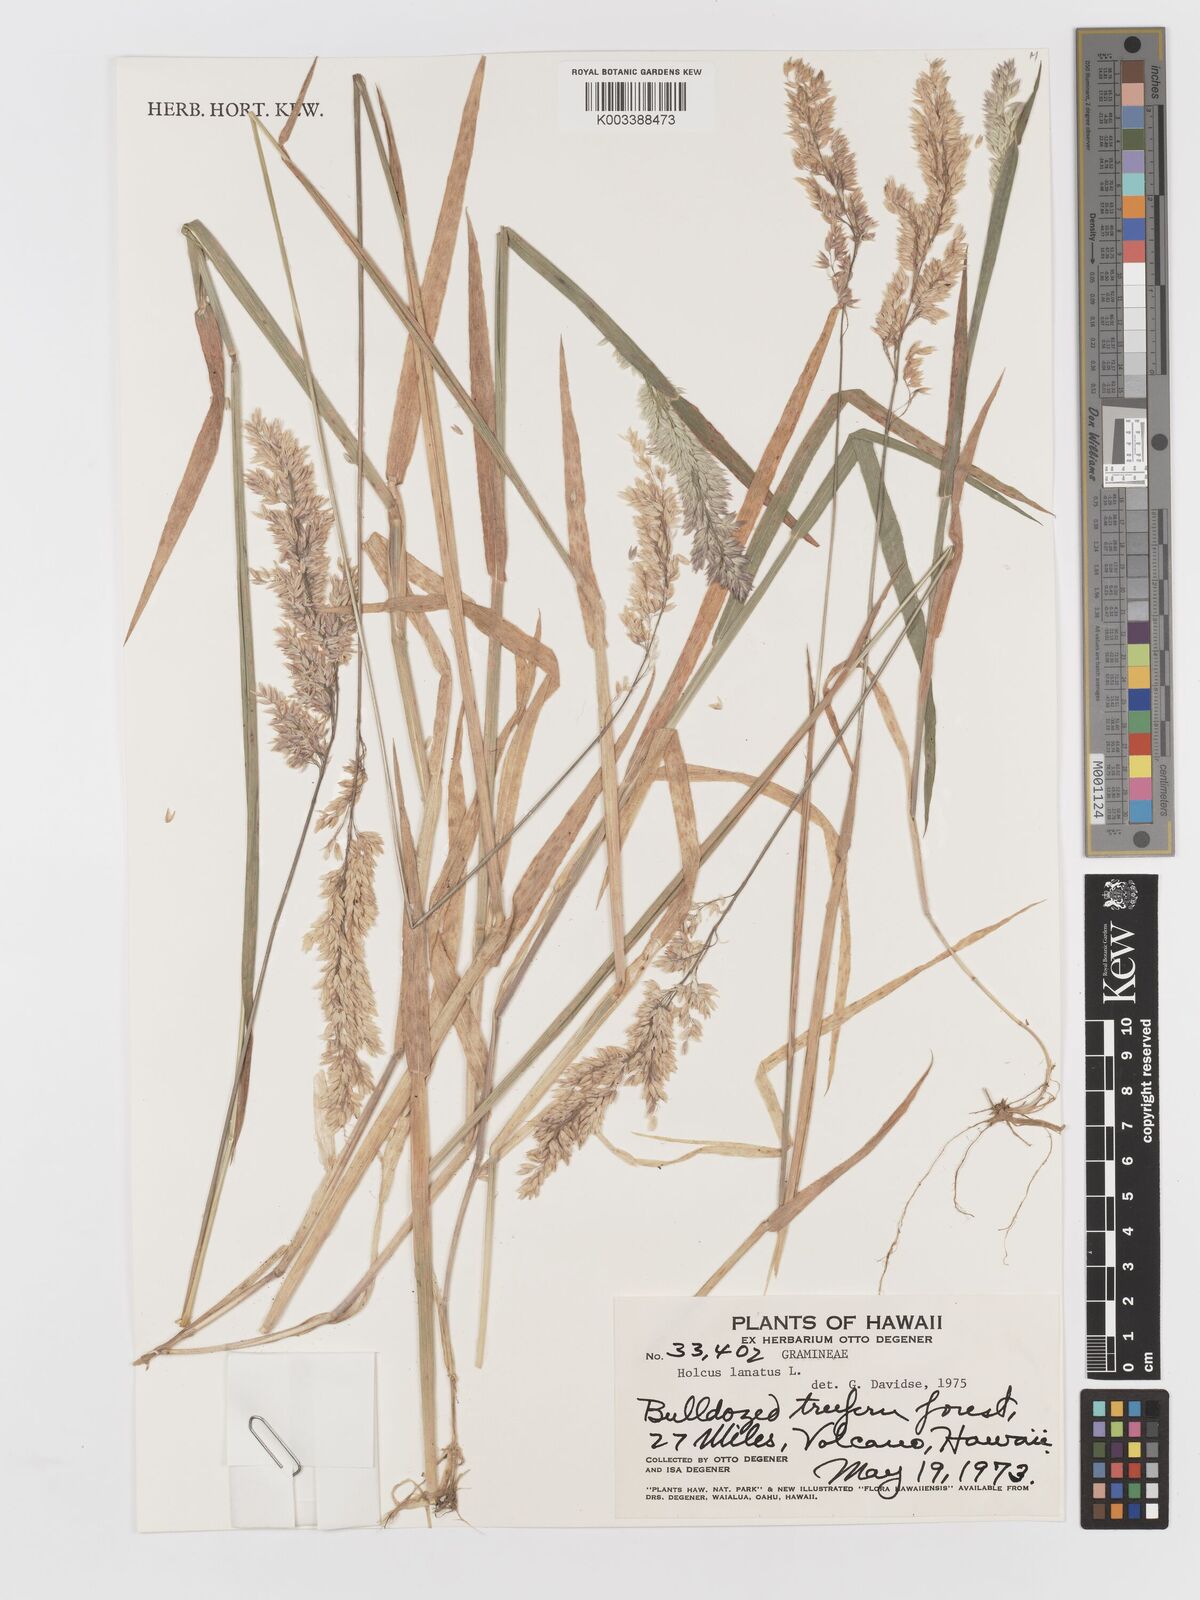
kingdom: Plantae
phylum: Tracheophyta
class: Liliopsida
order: Poales
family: Poaceae
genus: Holcus
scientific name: Holcus lanatus
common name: Yorkshire-fog
